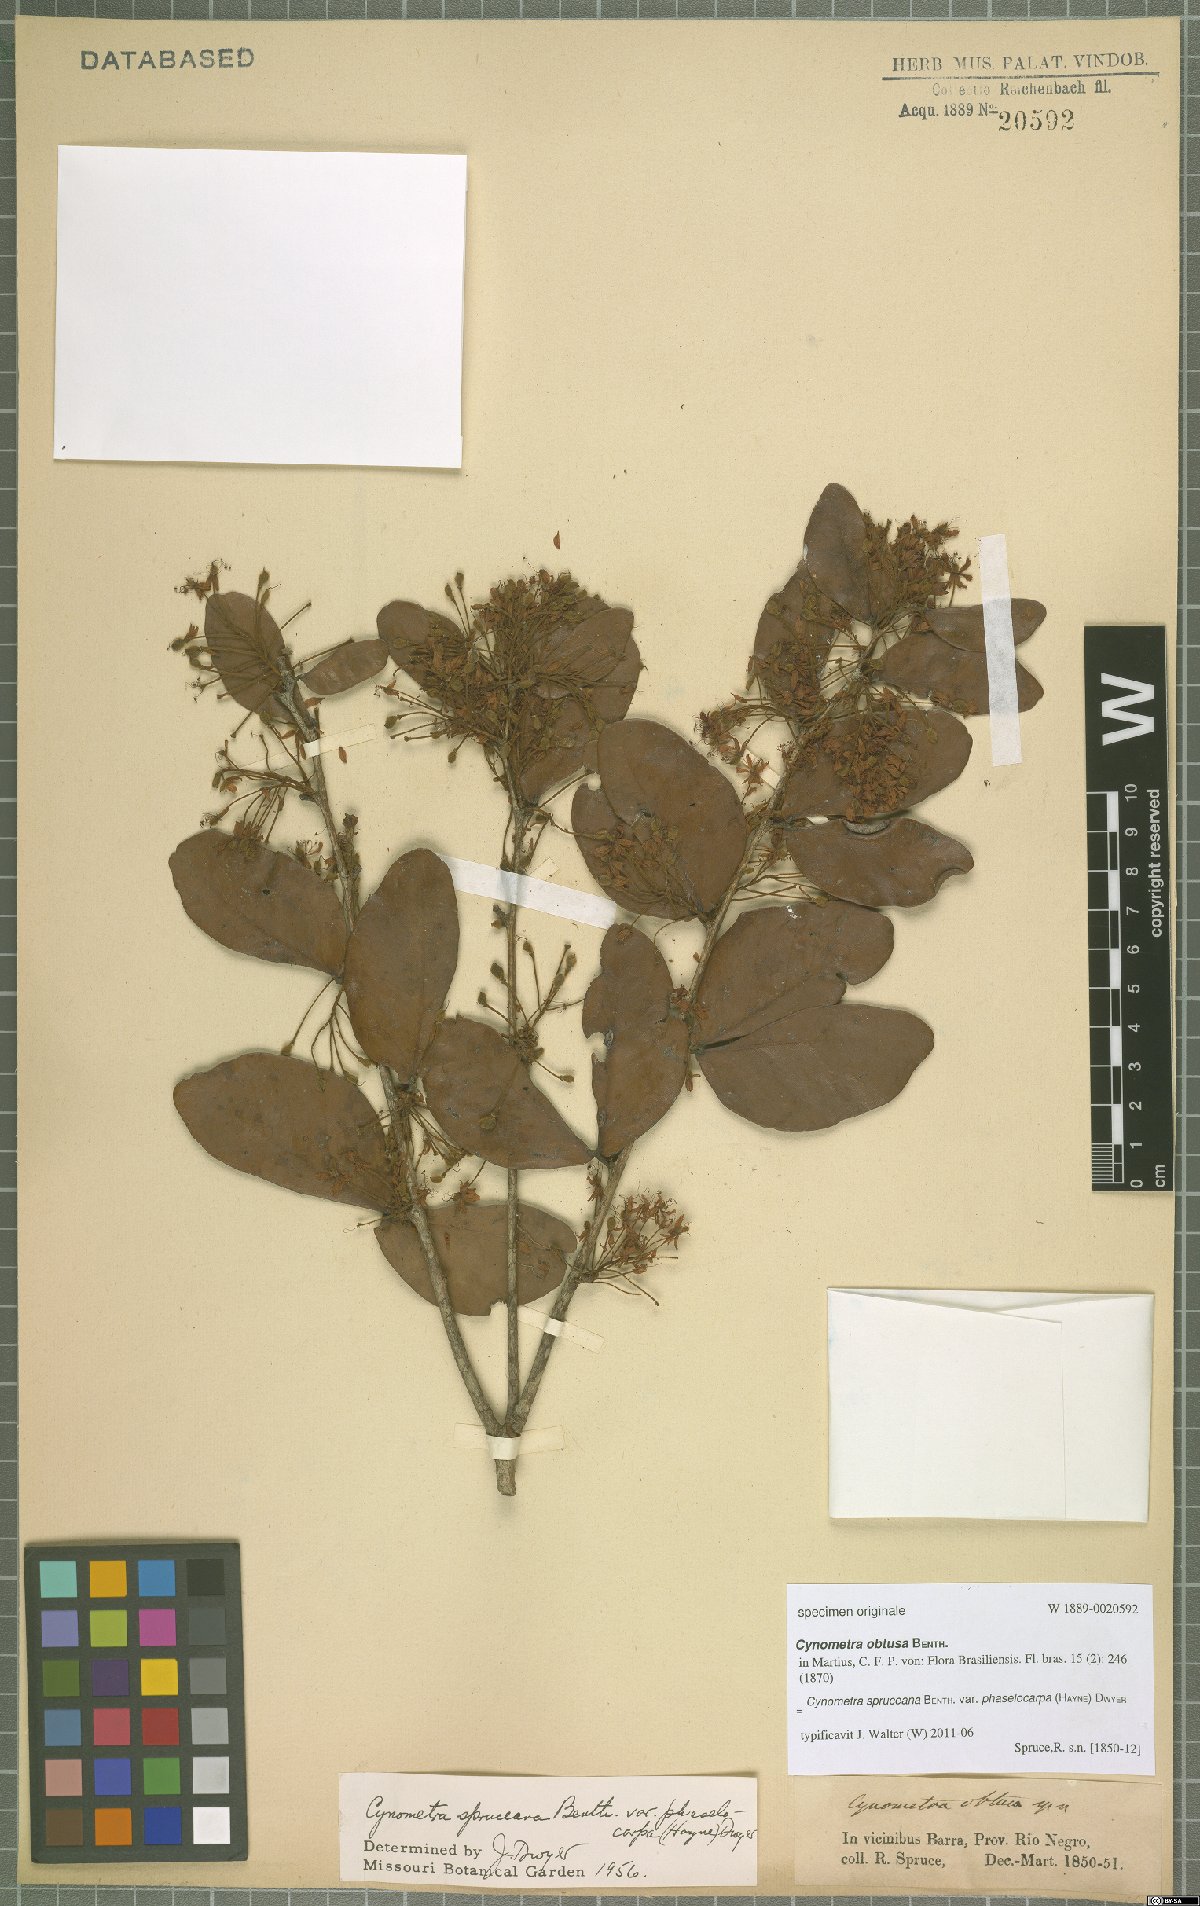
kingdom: Plantae
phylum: Tracheophyta
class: Magnoliopsida
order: Fabales
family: Fabaceae
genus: Cynometra
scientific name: Cynometra phaselocarpa
